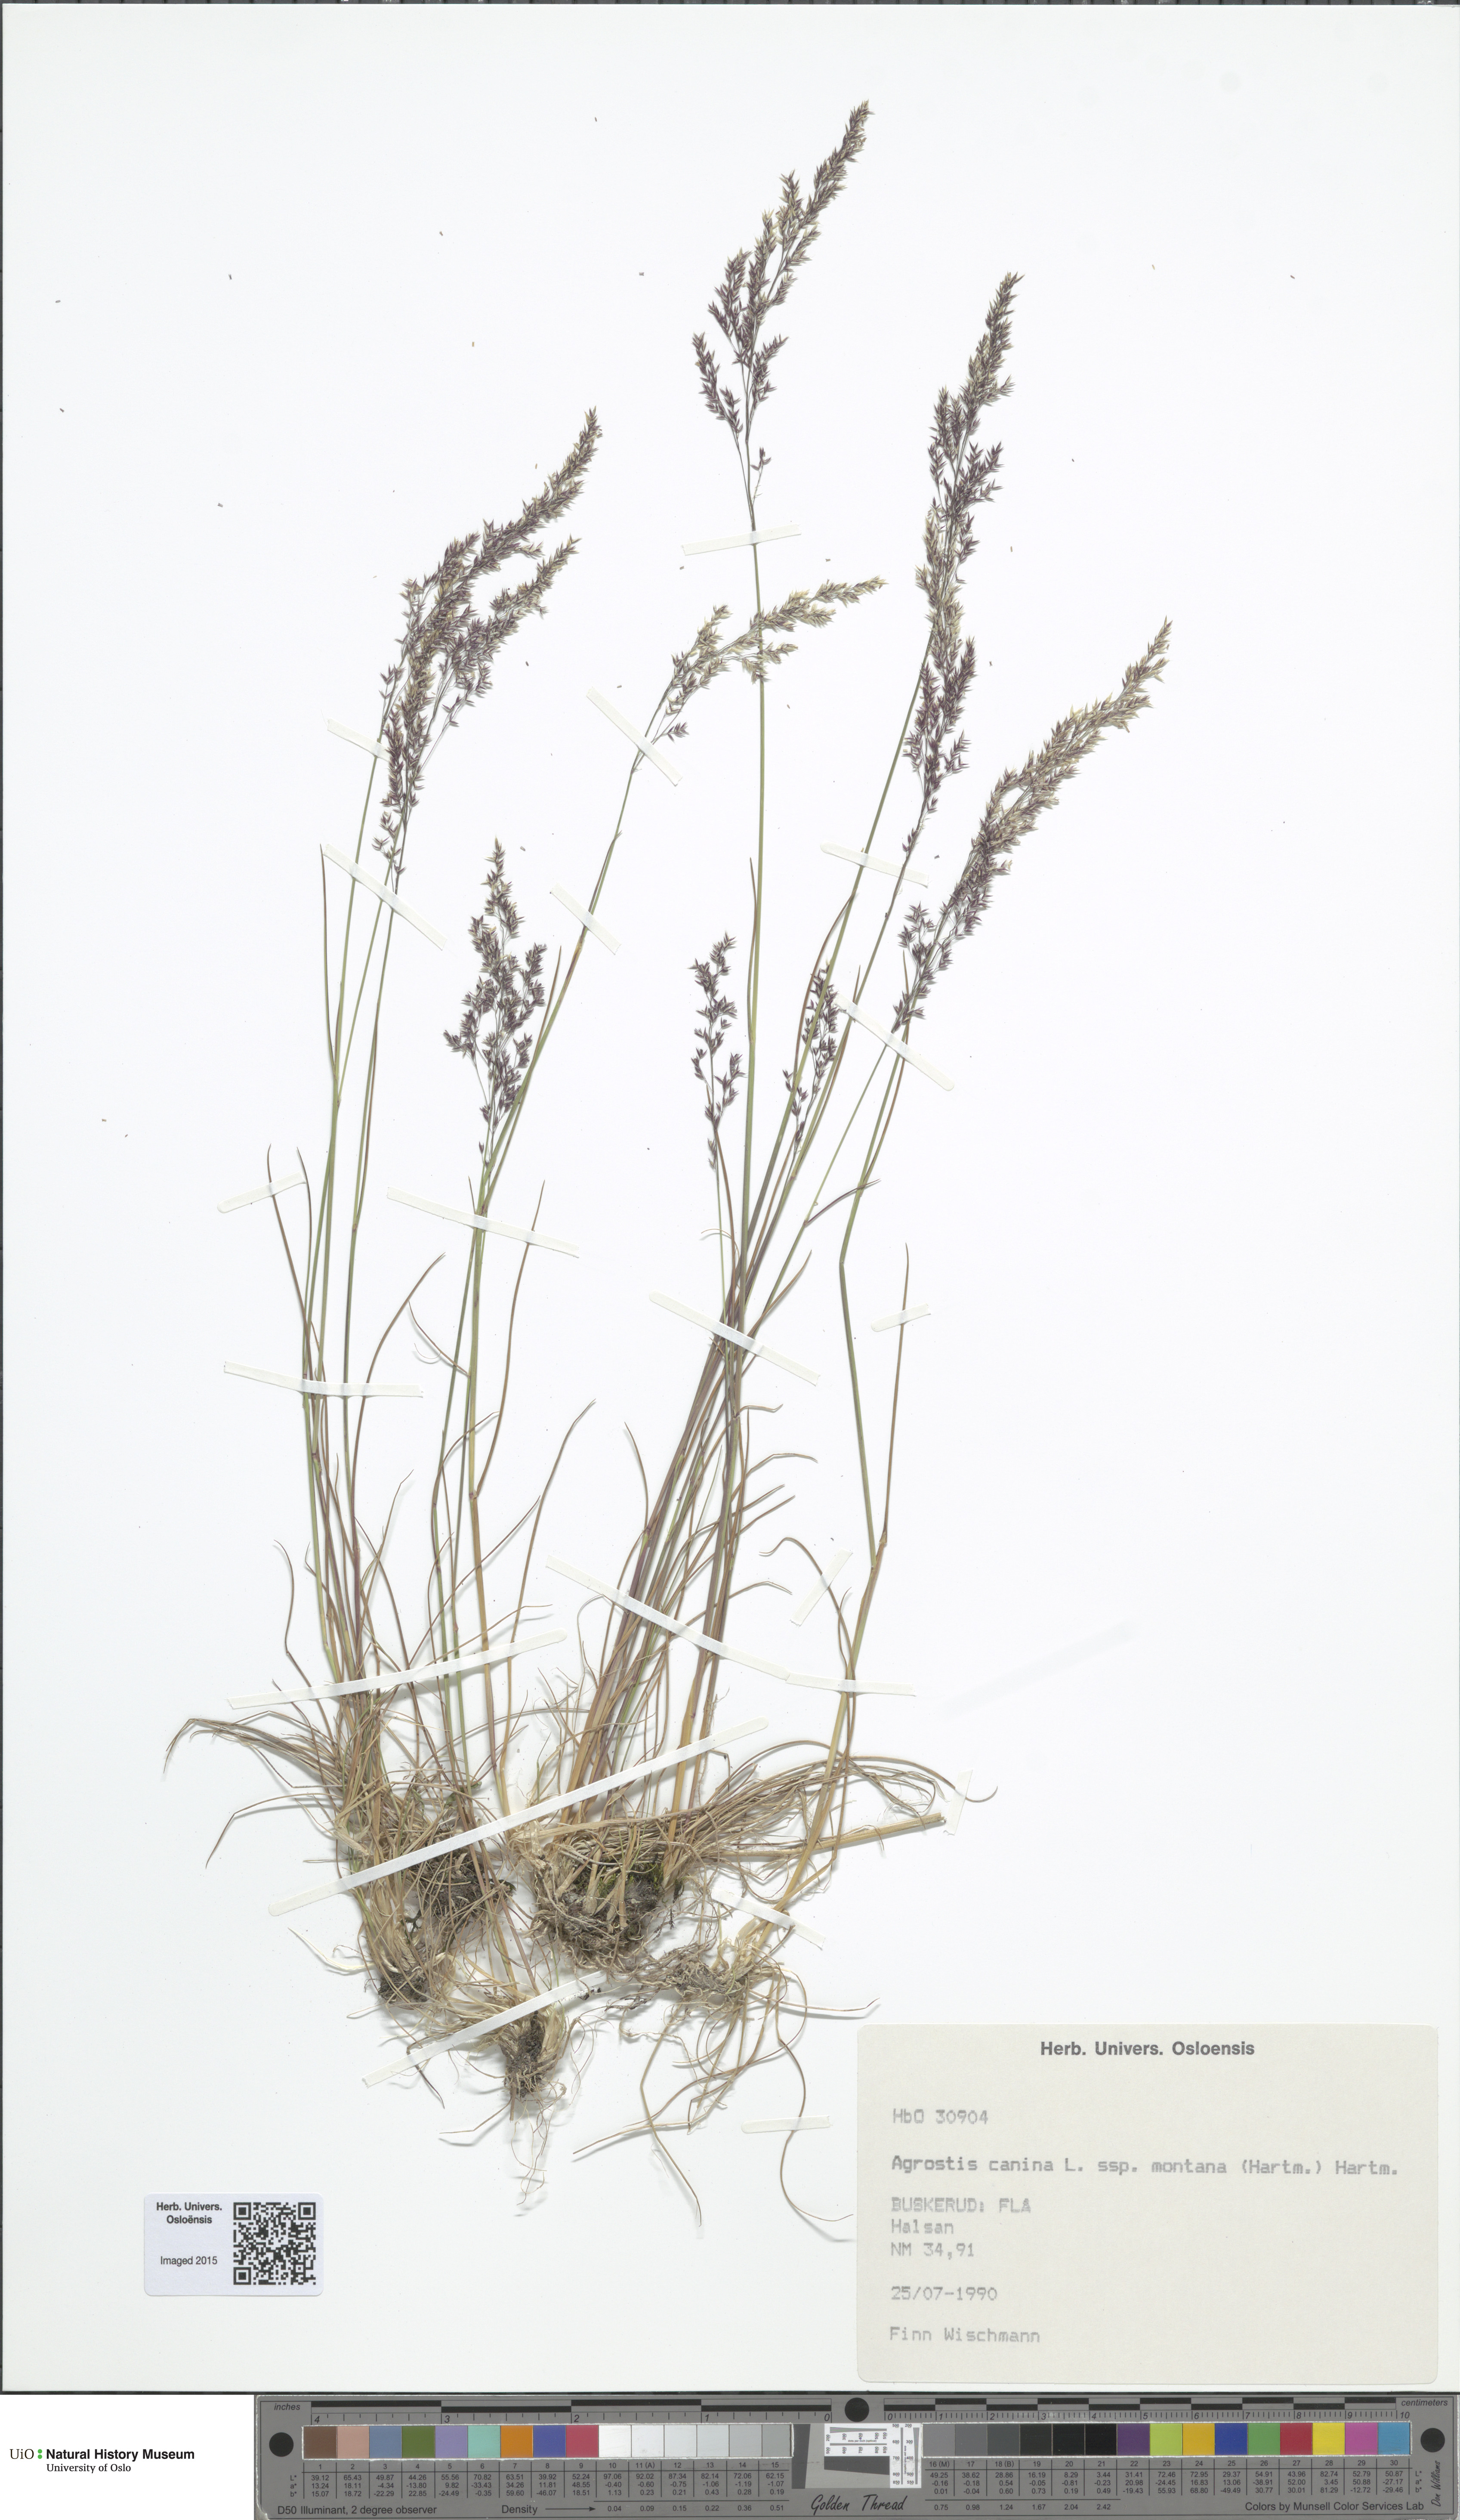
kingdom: Plantae
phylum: Tracheophyta
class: Liliopsida
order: Poales
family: Poaceae
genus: Agrostis
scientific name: Agrostis vinealis
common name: Brown bent
